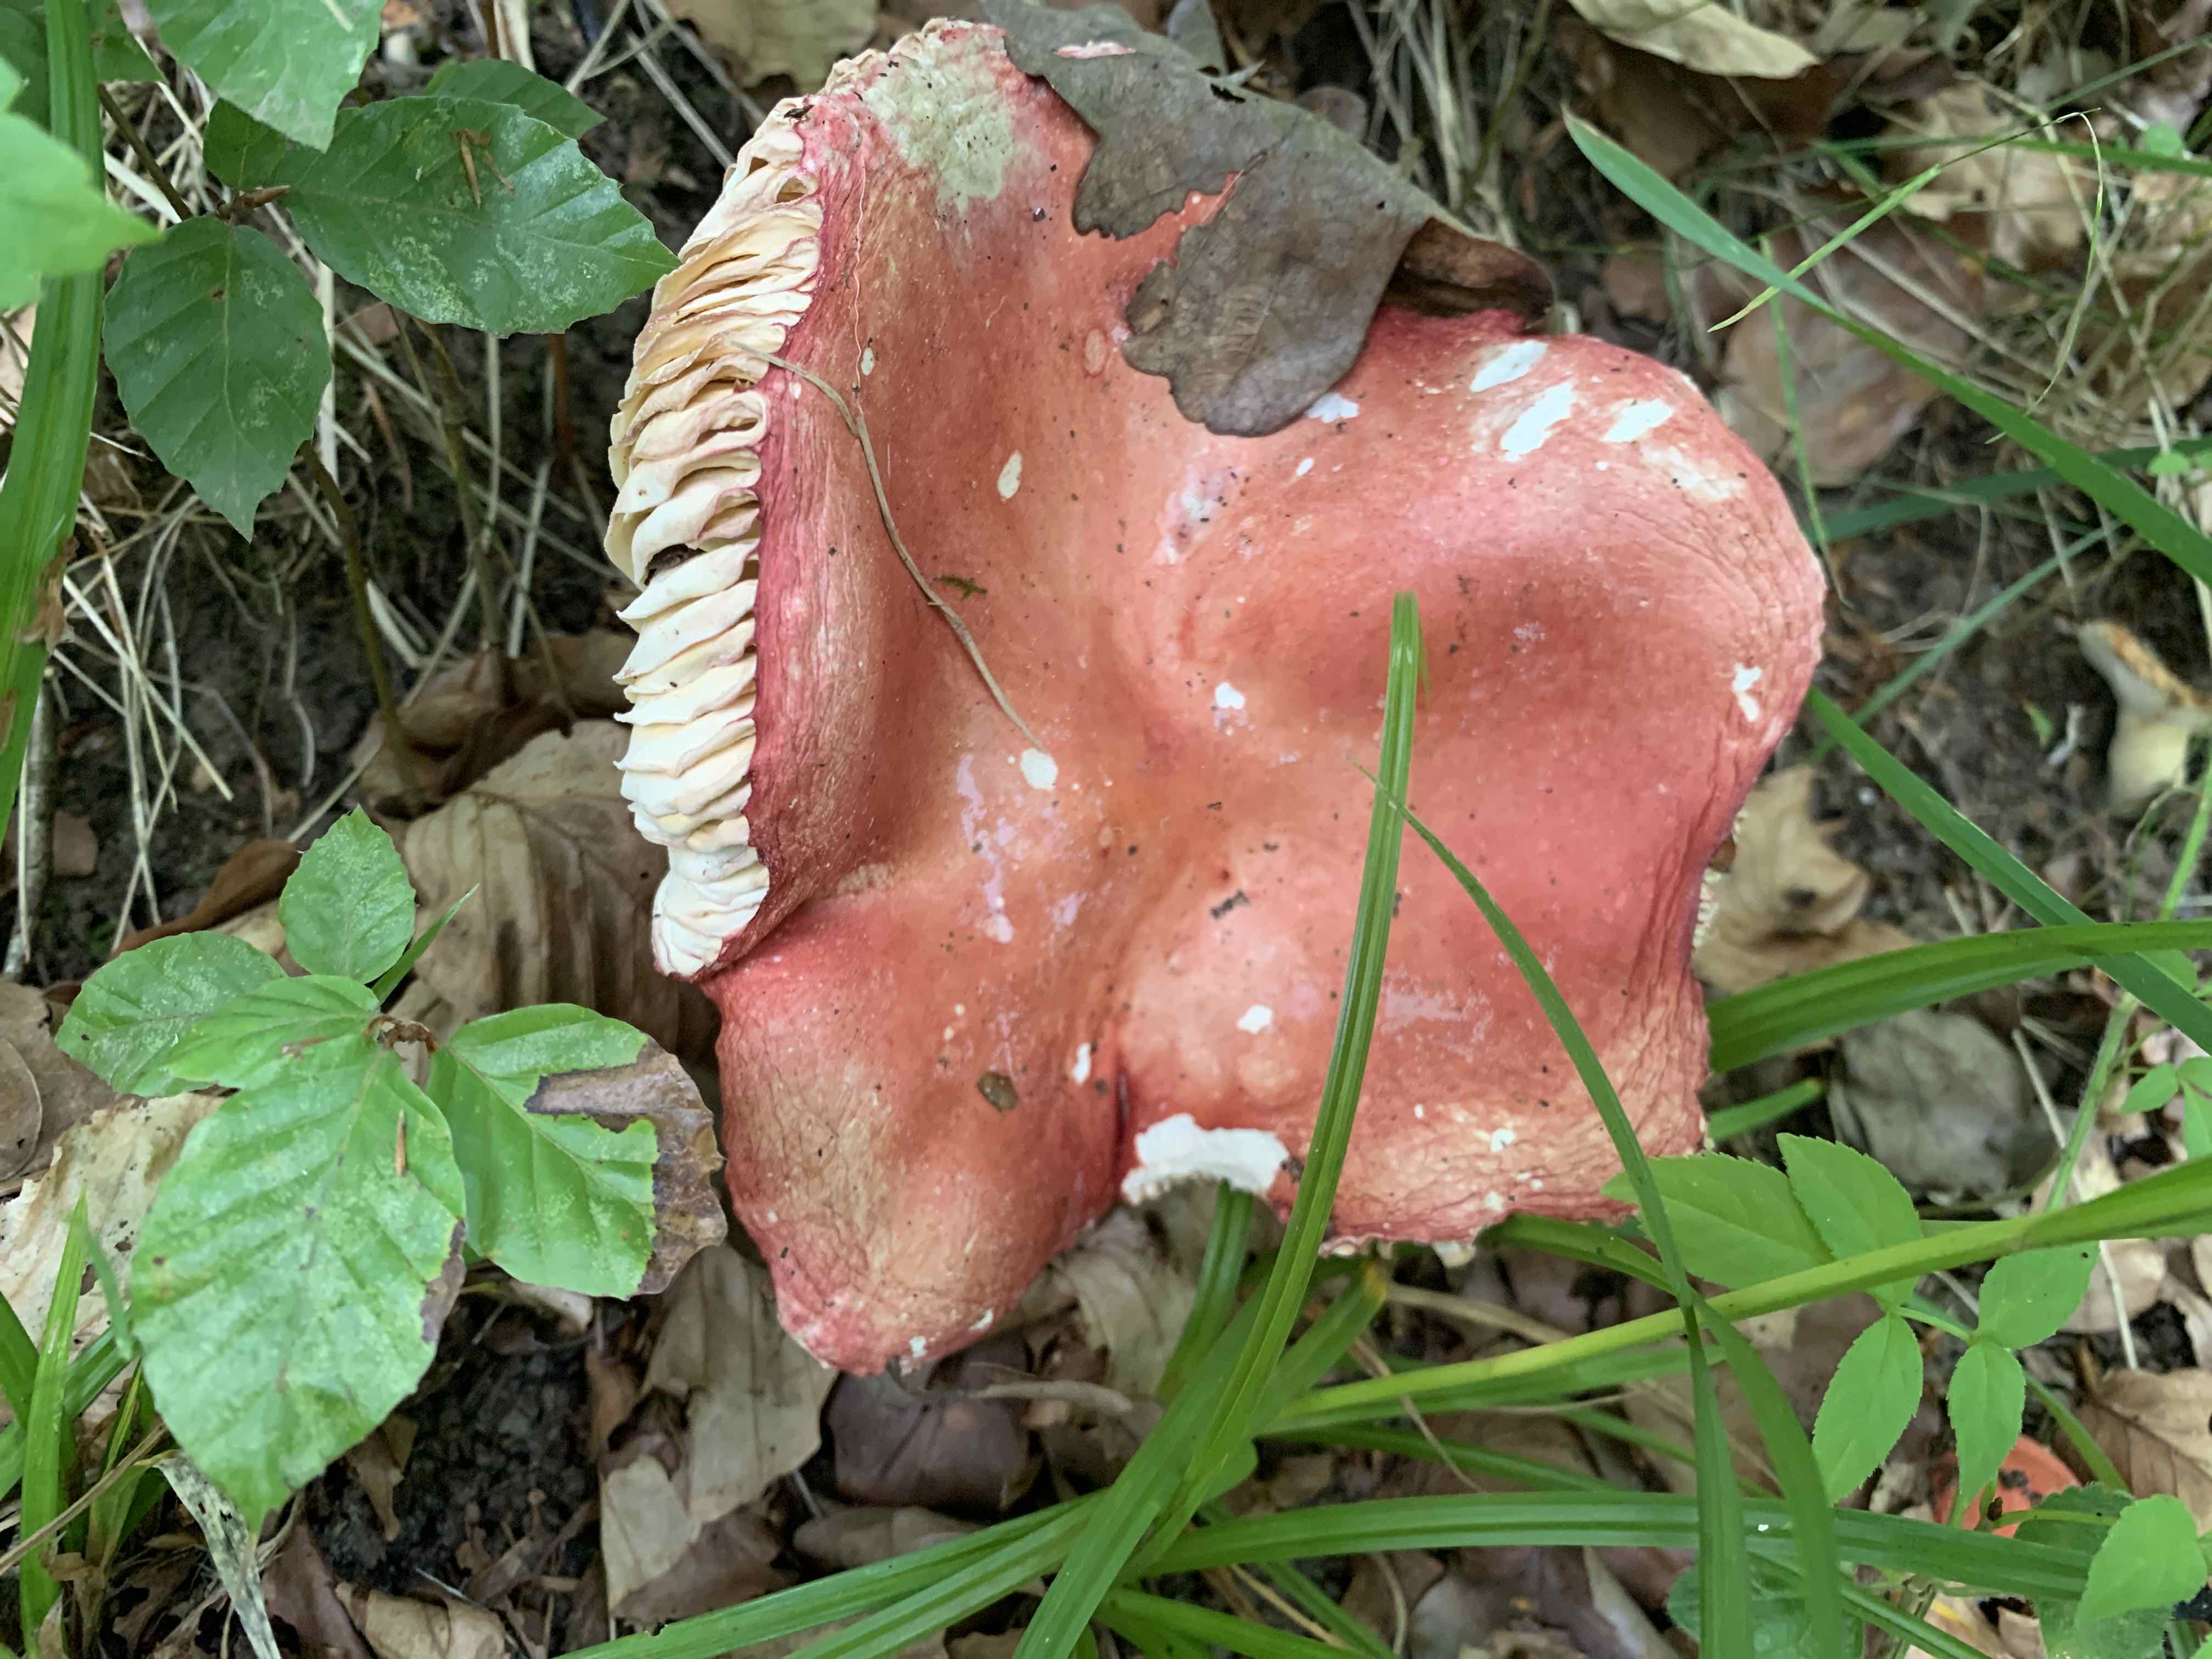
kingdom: Fungi
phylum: Basidiomycota
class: Agaricomycetes
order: Russulales
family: Russulaceae
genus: Russula
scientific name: Russula pseudointegra
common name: cinnoberrød skørhat
